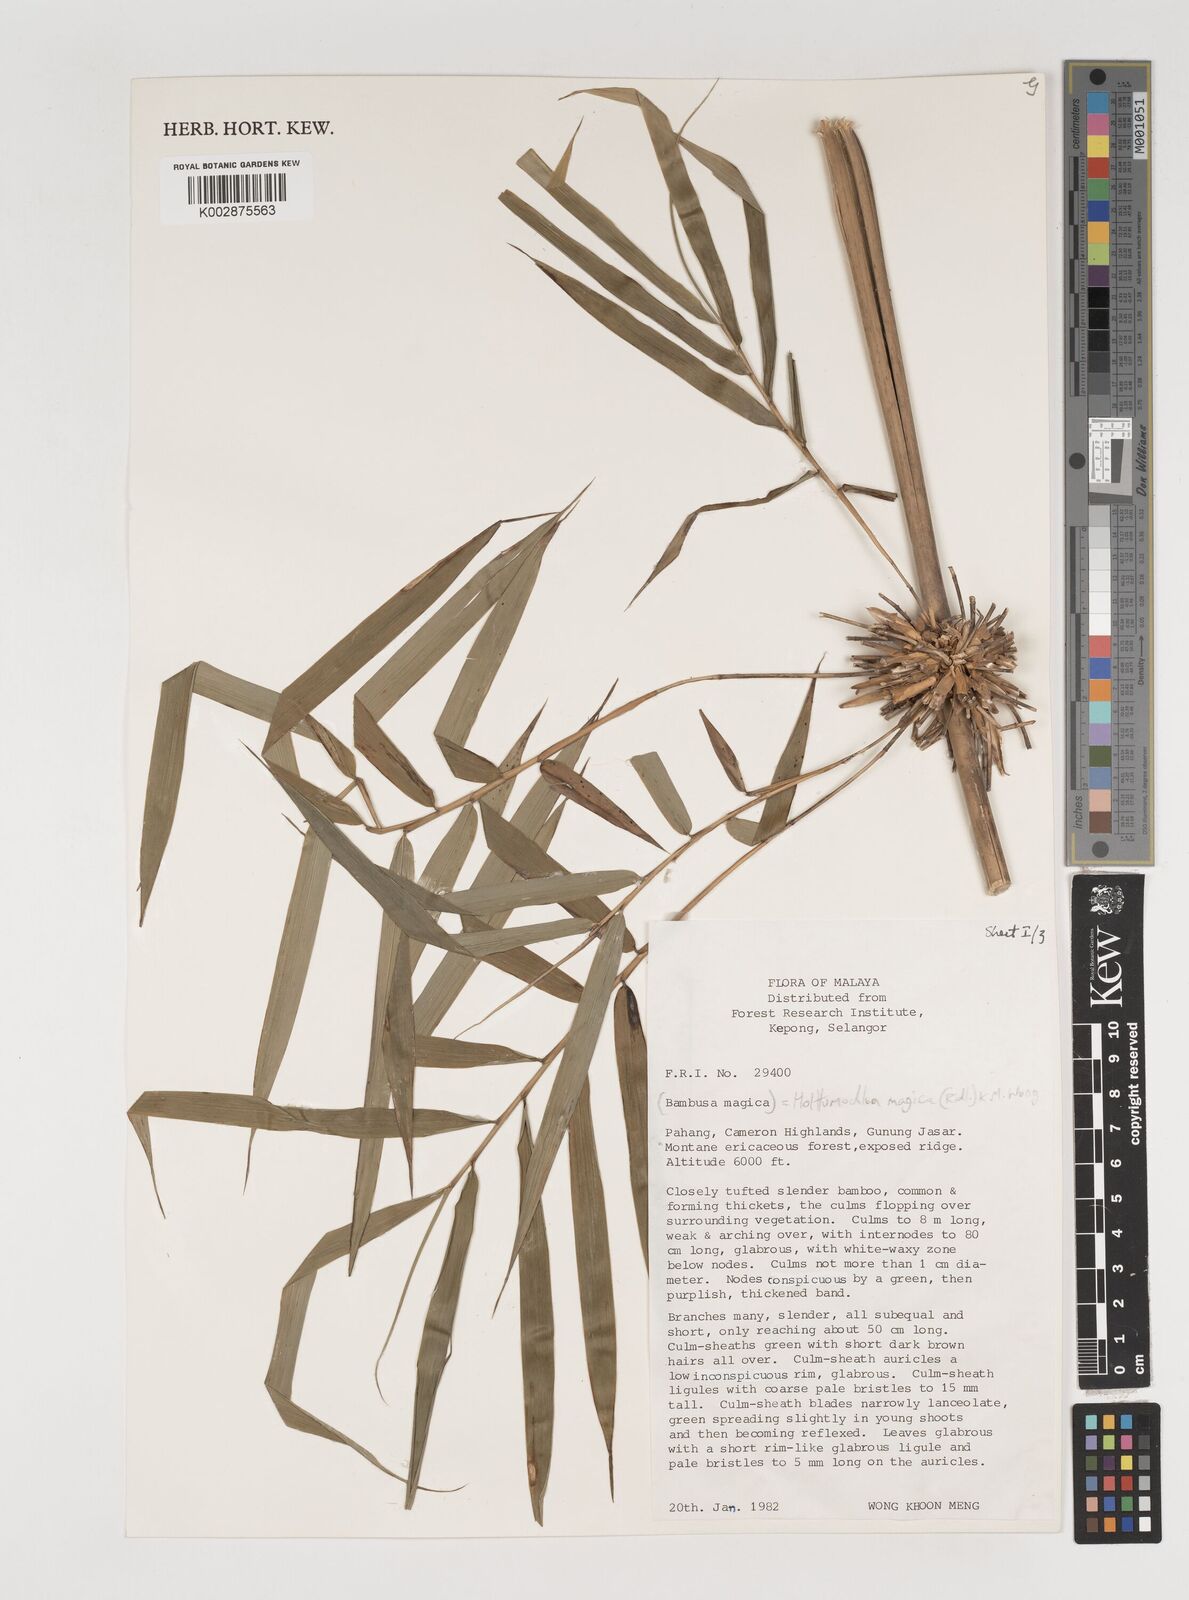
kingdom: Plantae
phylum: Tracheophyta
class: Liliopsida
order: Poales
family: Poaceae
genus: Holttumochloa
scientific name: Holttumochloa magica
